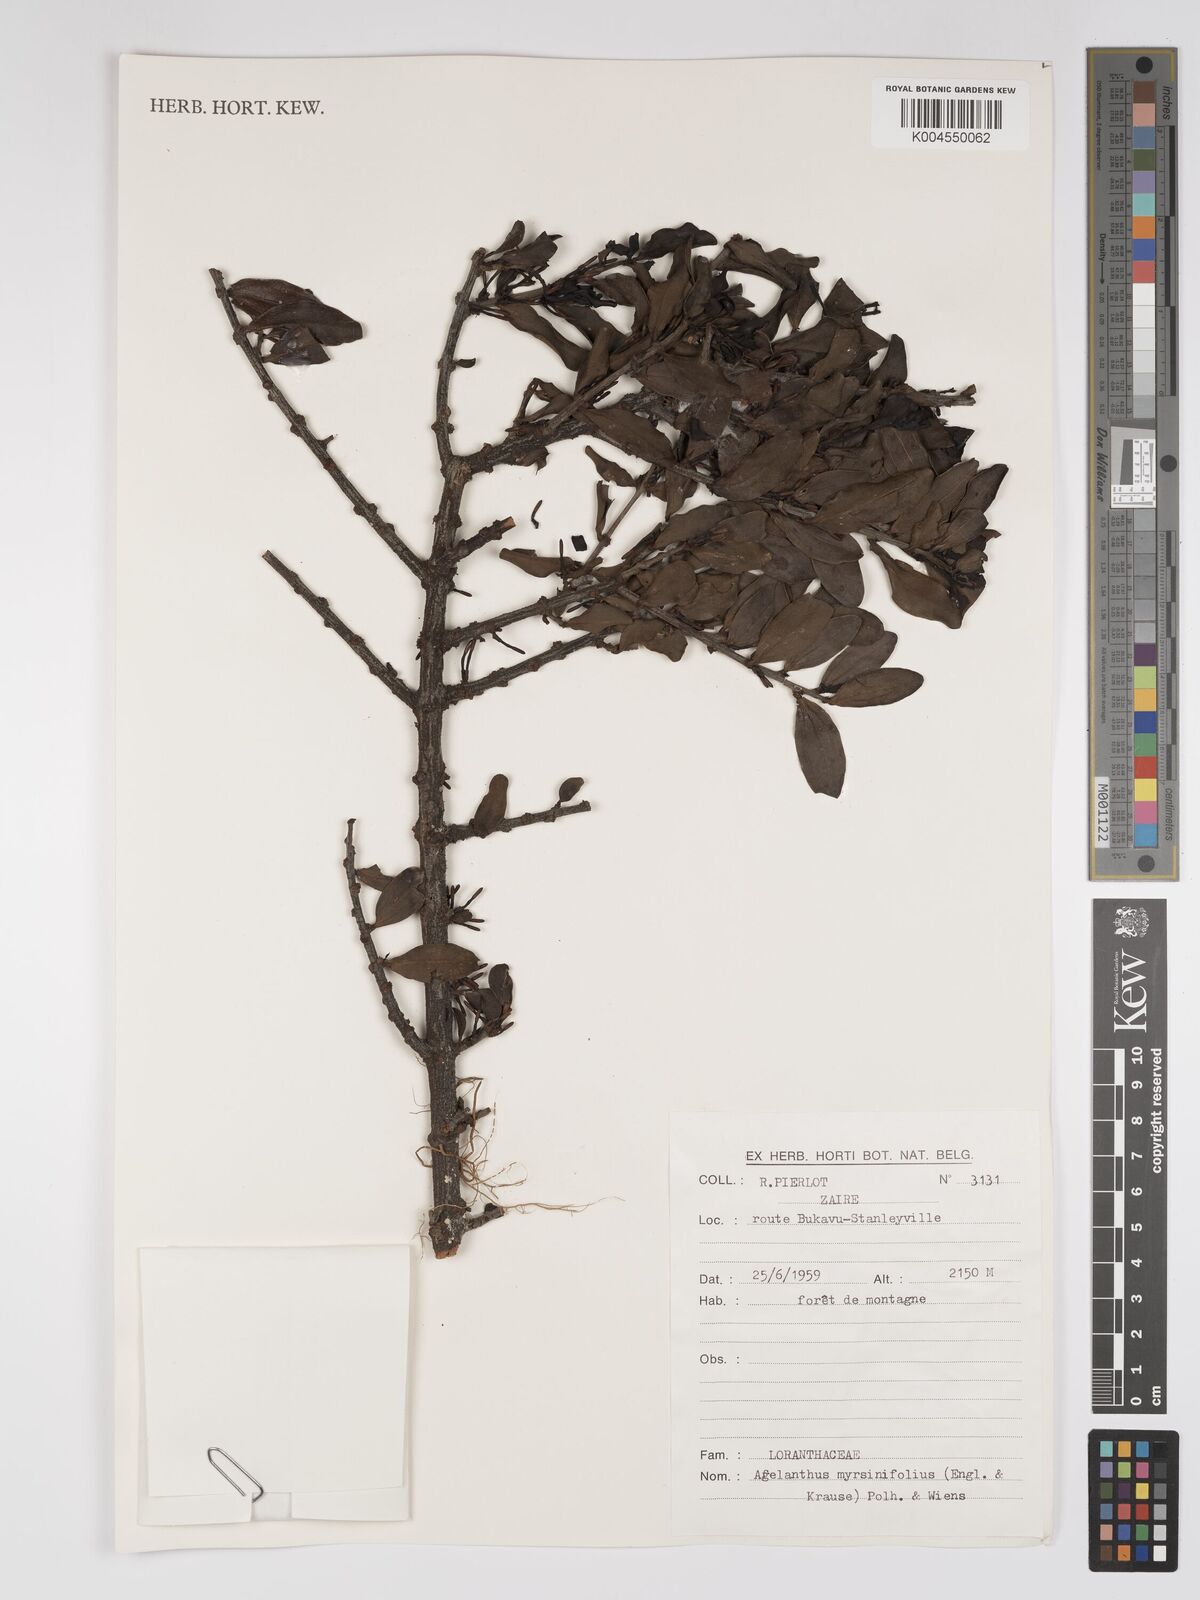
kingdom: Plantae
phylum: Tracheophyta
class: Magnoliopsida
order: Santalales
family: Loranthaceae
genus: Agelanthus
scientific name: Agelanthus myrsinifolius
